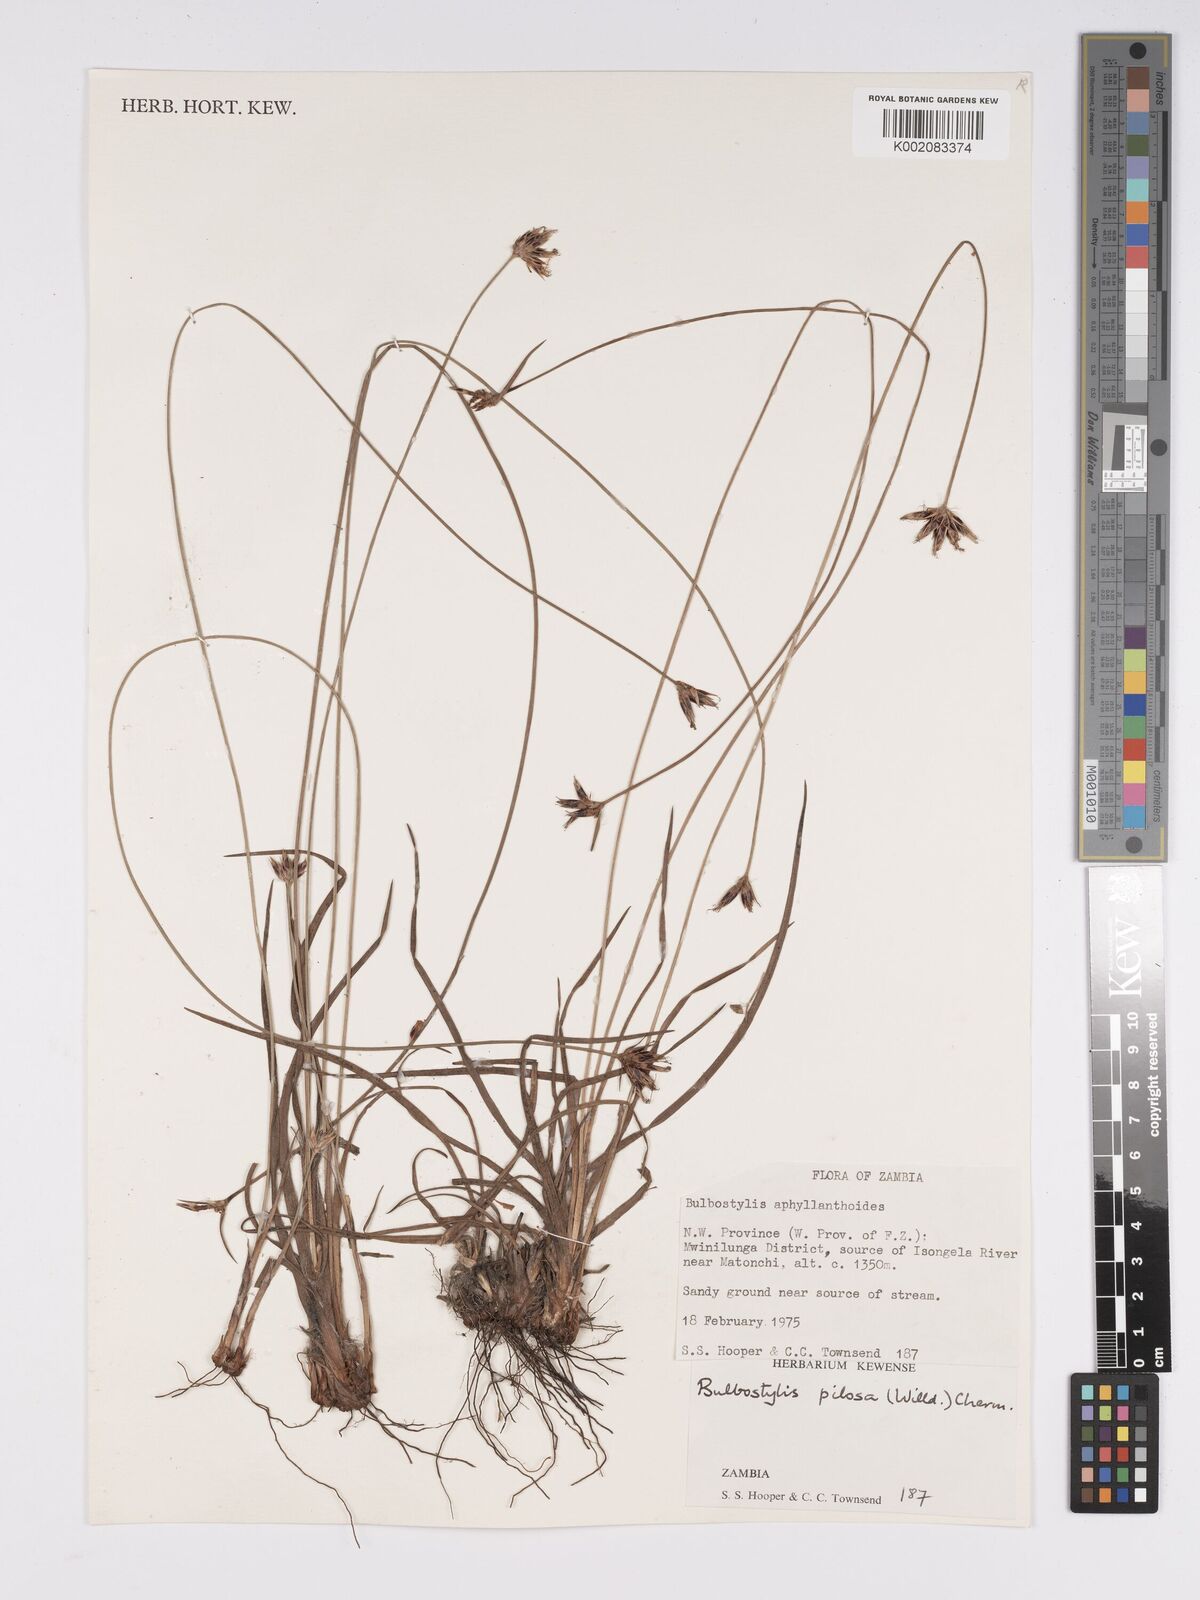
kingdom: Plantae
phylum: Tracheophyta
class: Liliopsida
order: Poales
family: Cyperaceae
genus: Bulbostylis
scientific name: Bulbostylis pilosa
